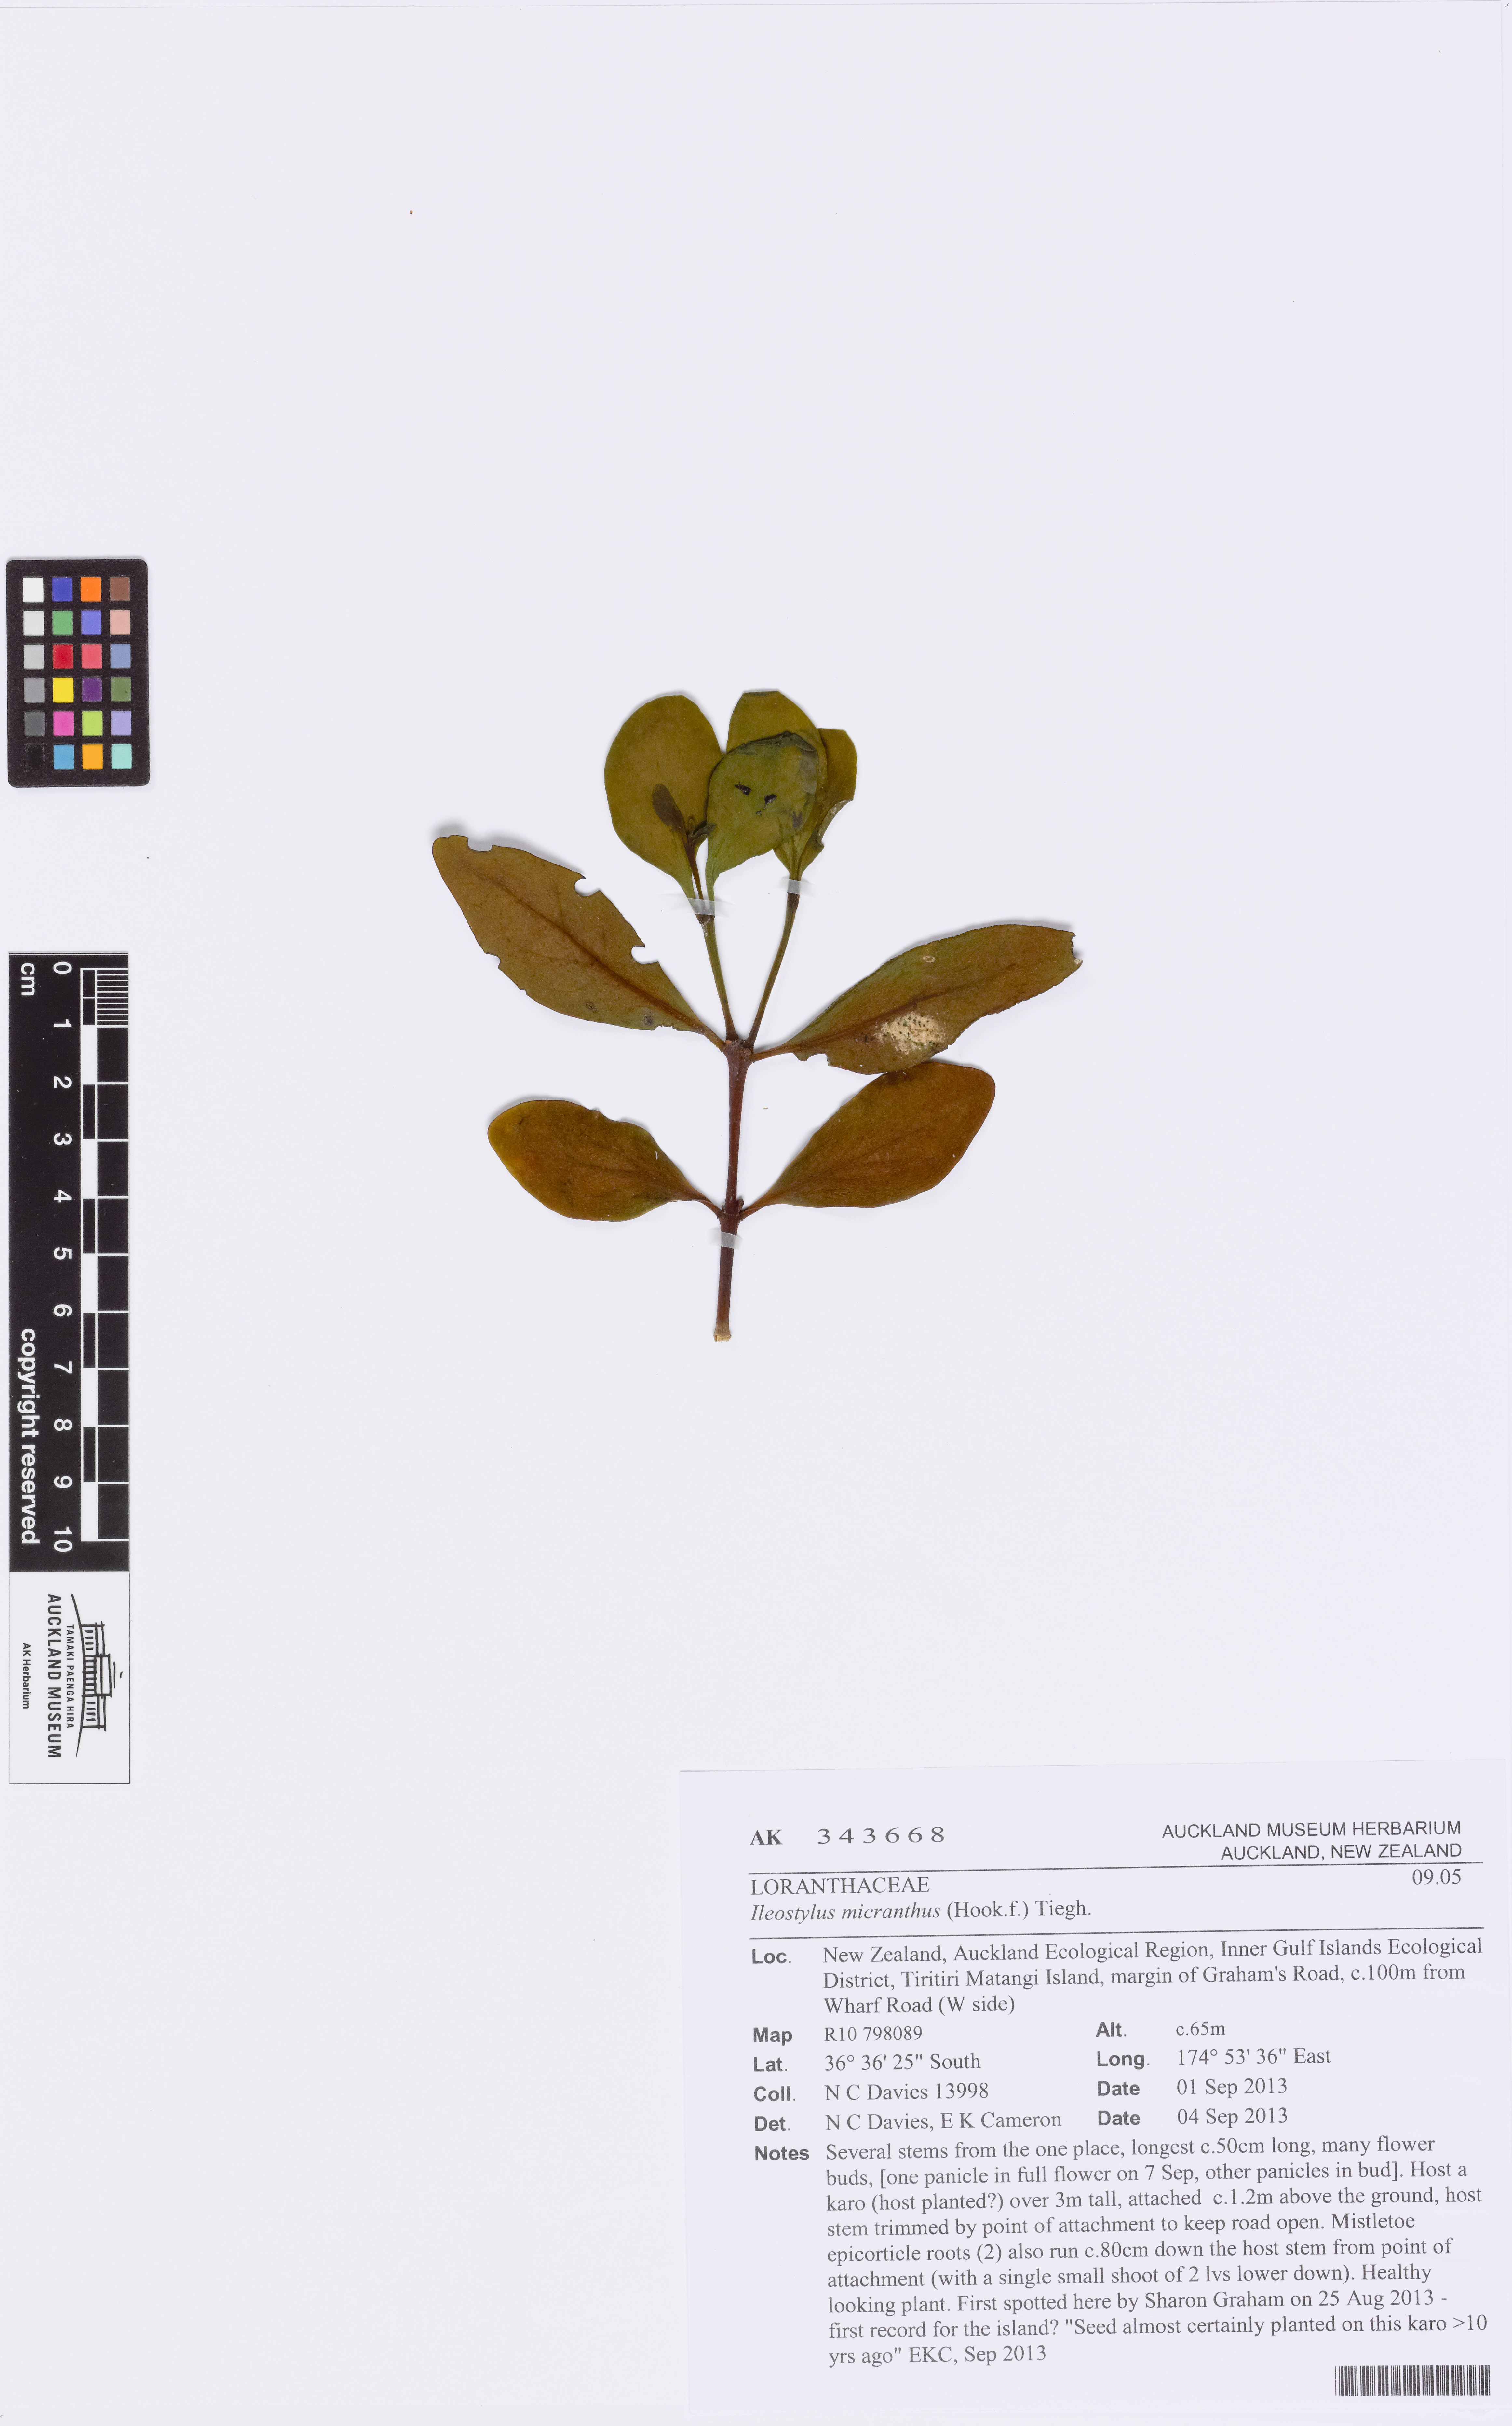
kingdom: Plantae
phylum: Tracheophyta
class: Magnoliopsida
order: Santalales
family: Loranthaceae
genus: Ileostylus
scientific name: Ileostylus micranthus
